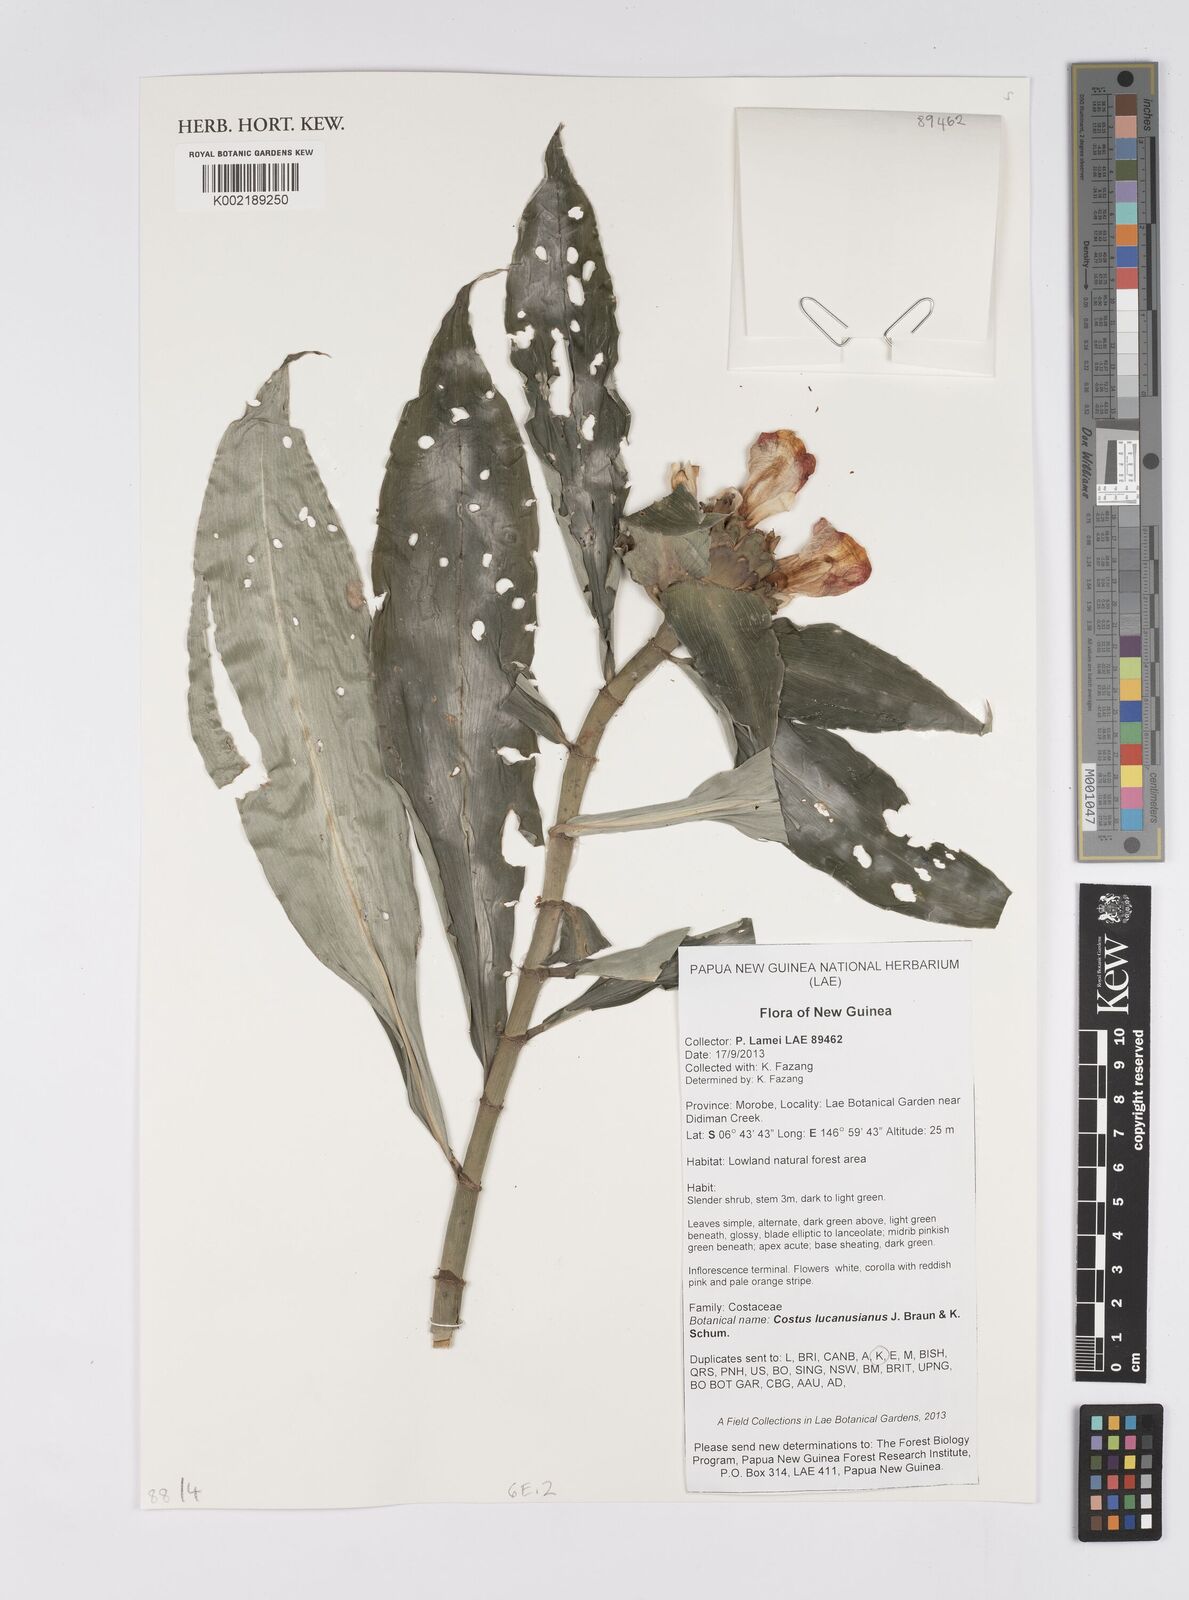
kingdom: Plantae
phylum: Tracheophyta
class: Liliopsida
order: Zingiberales
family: Costaceae
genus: Costus
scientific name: Costus lucanusianus
